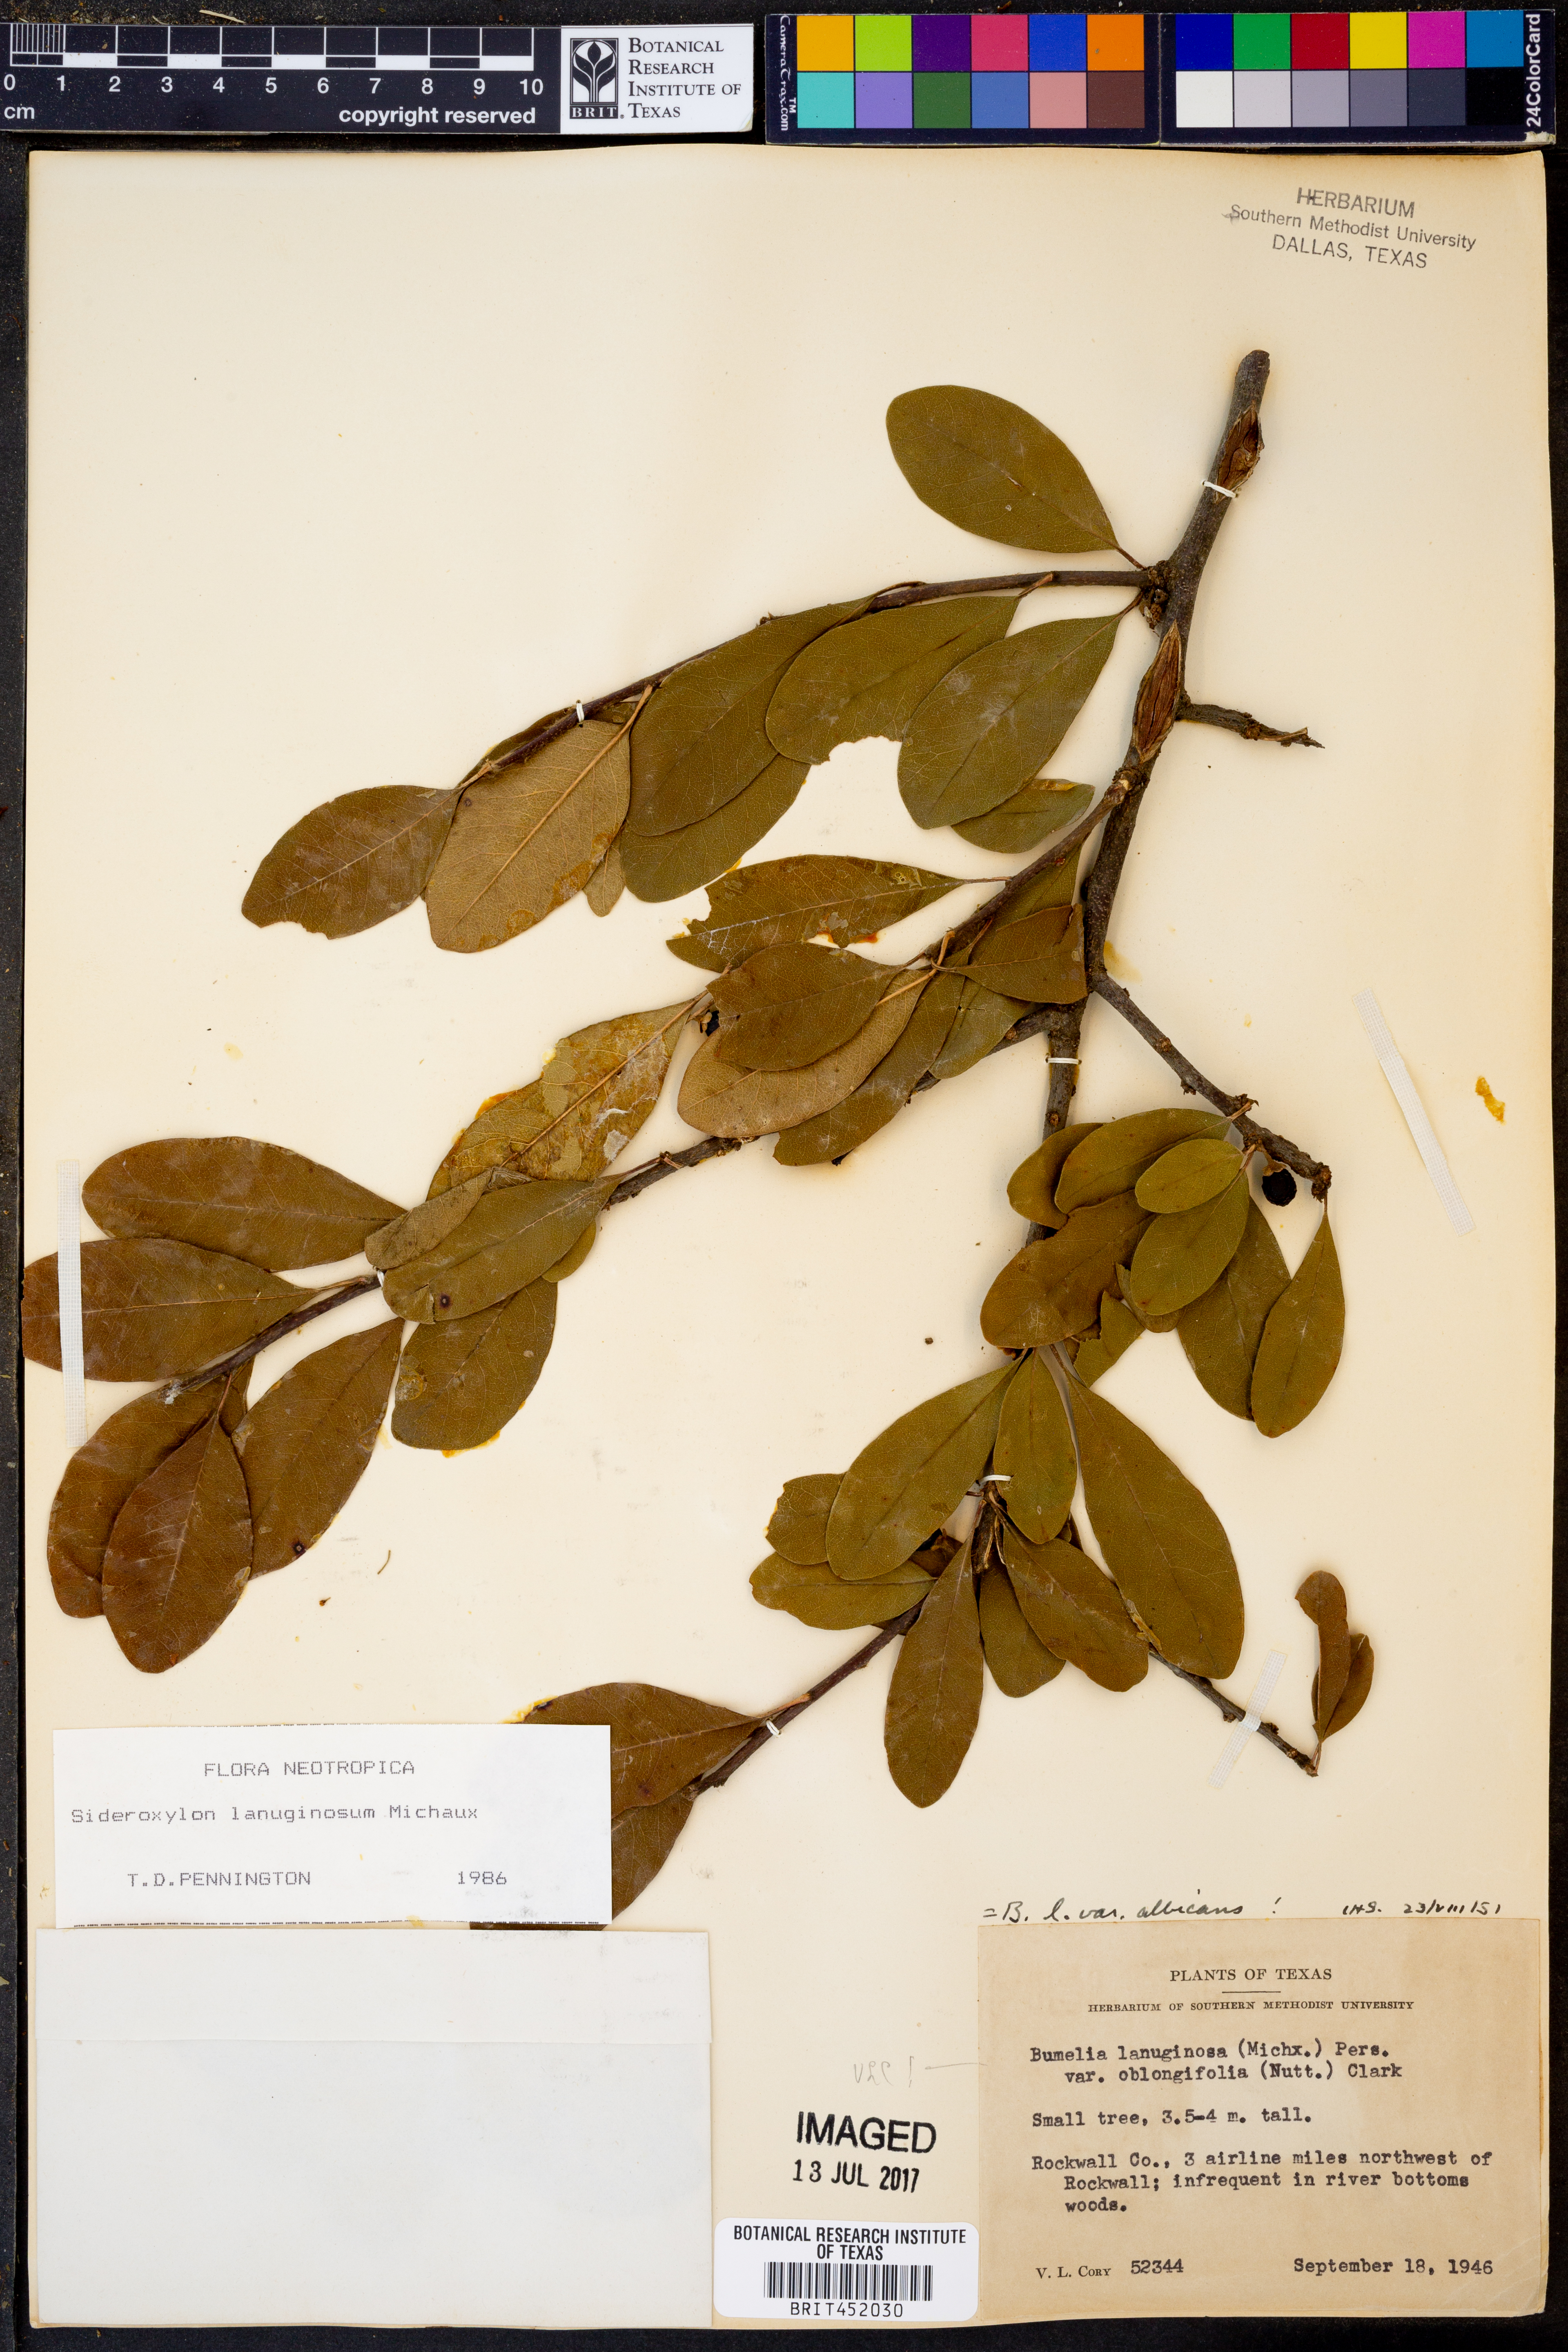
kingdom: Plantae
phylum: Tracheophyta
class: Magnoliopsida
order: Ericales
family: Sapotaceae
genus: Sideroxylon
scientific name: Sideroxylon lanuginosum
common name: Chittamwood
